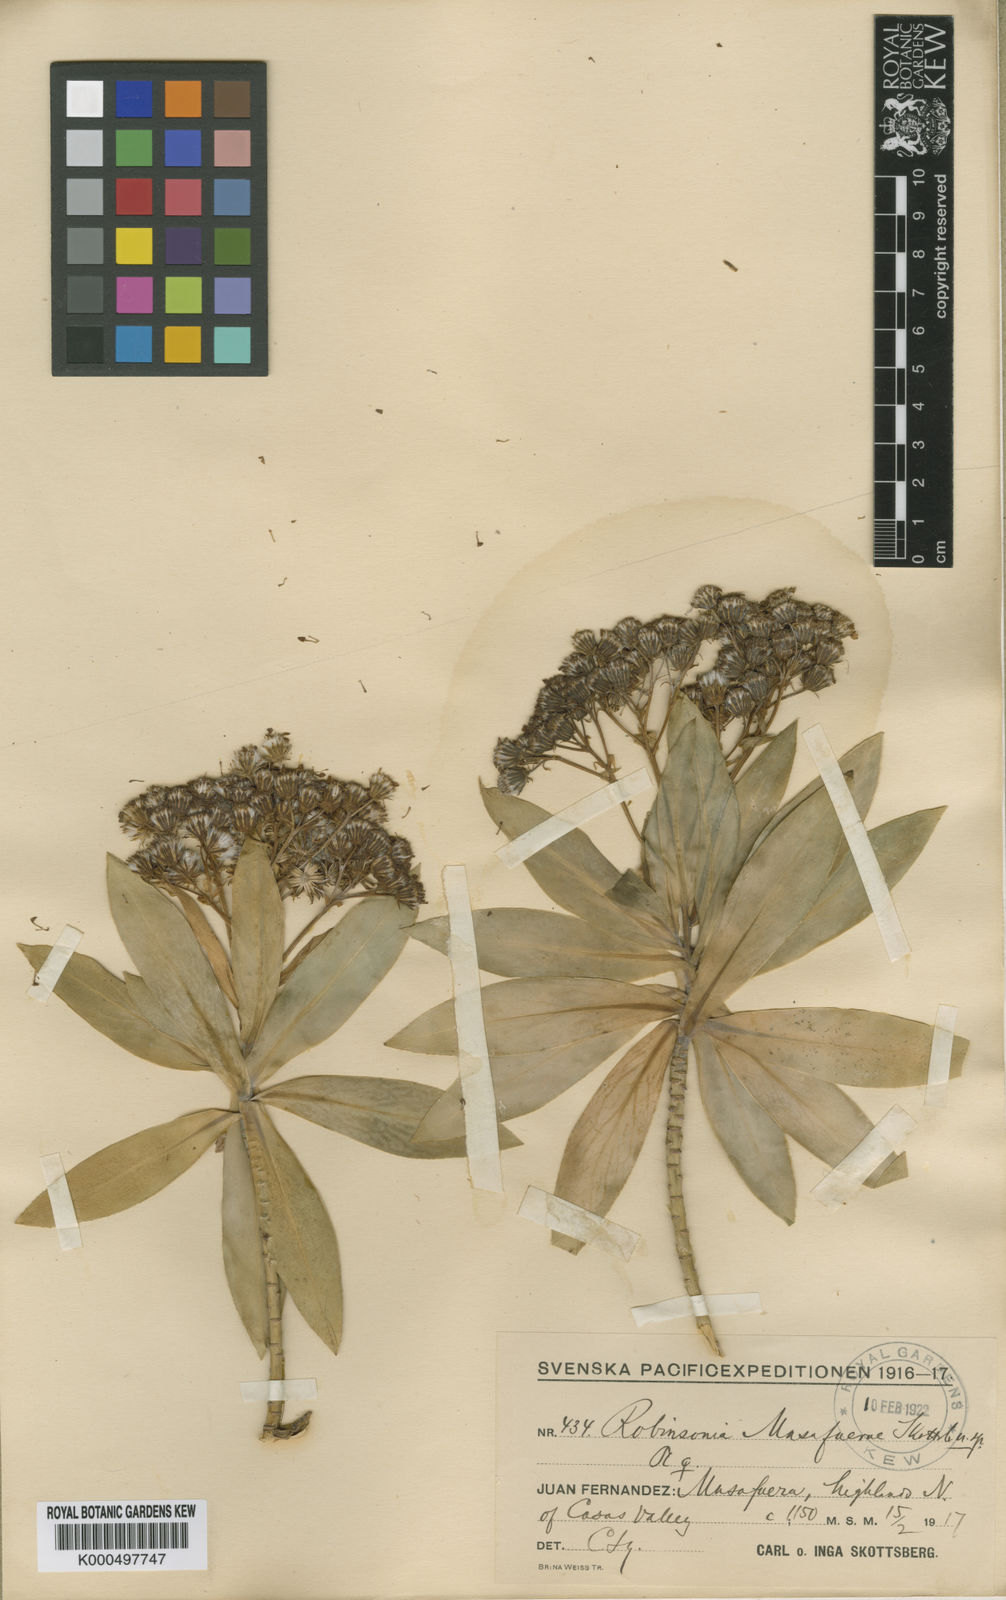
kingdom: Plantae
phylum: Tracheophyta
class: Magnoliopsida
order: Asterales
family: Asteraceae
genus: Robinsonia
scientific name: Robinsonia masafuerae
